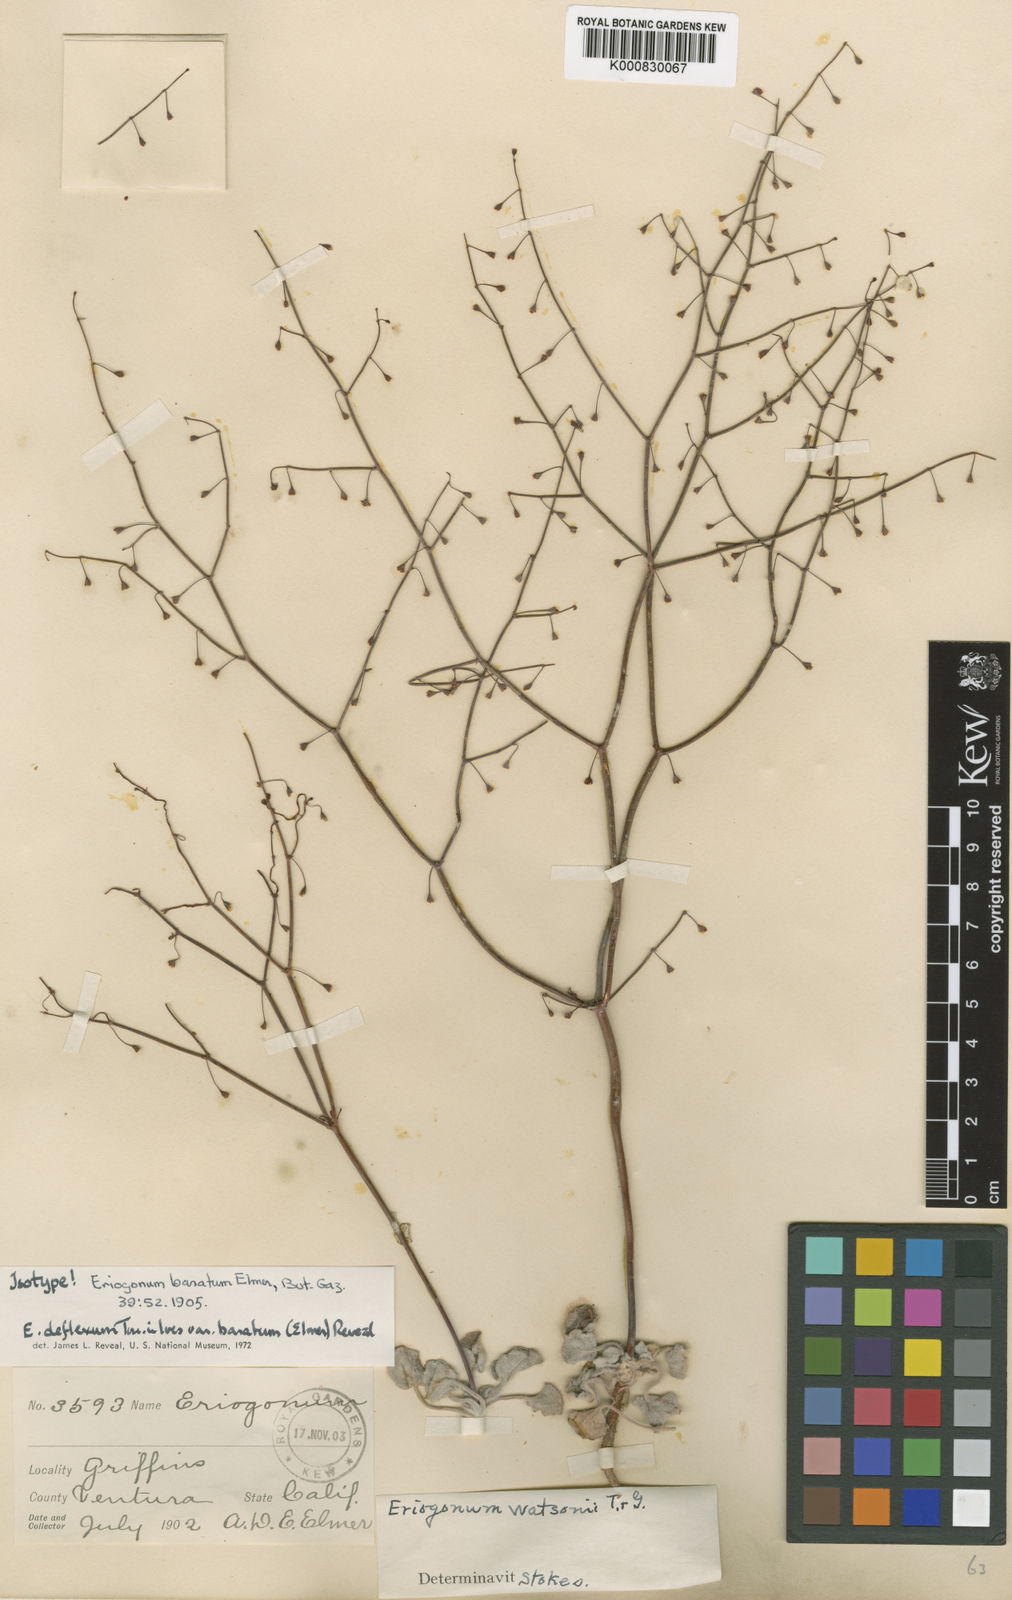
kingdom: Plantae
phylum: Tracheophyta
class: Magnoliopsida
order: Caryophyllales
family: Polygonaceae
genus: Eriogonum
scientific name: Eriogonum deflexum
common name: Skeleton-weed
